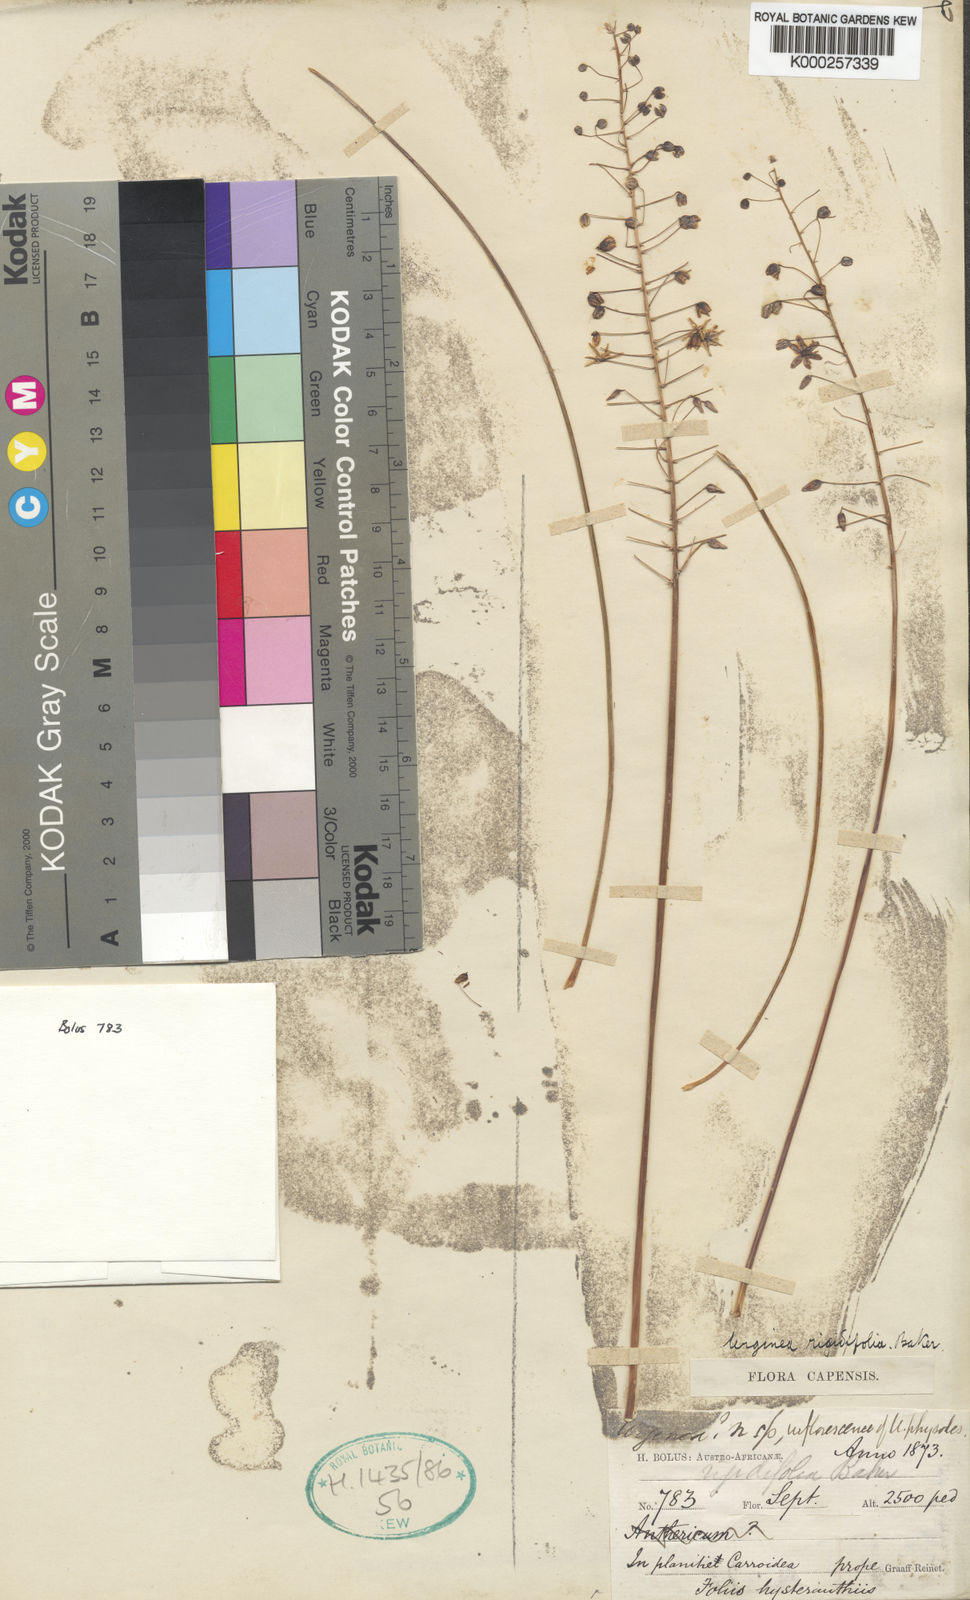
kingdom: Plantae
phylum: Tracheophyta
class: Liliopsida
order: Asparagales
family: Asparagaceae
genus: Drimia
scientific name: Drimia sclerophylla
